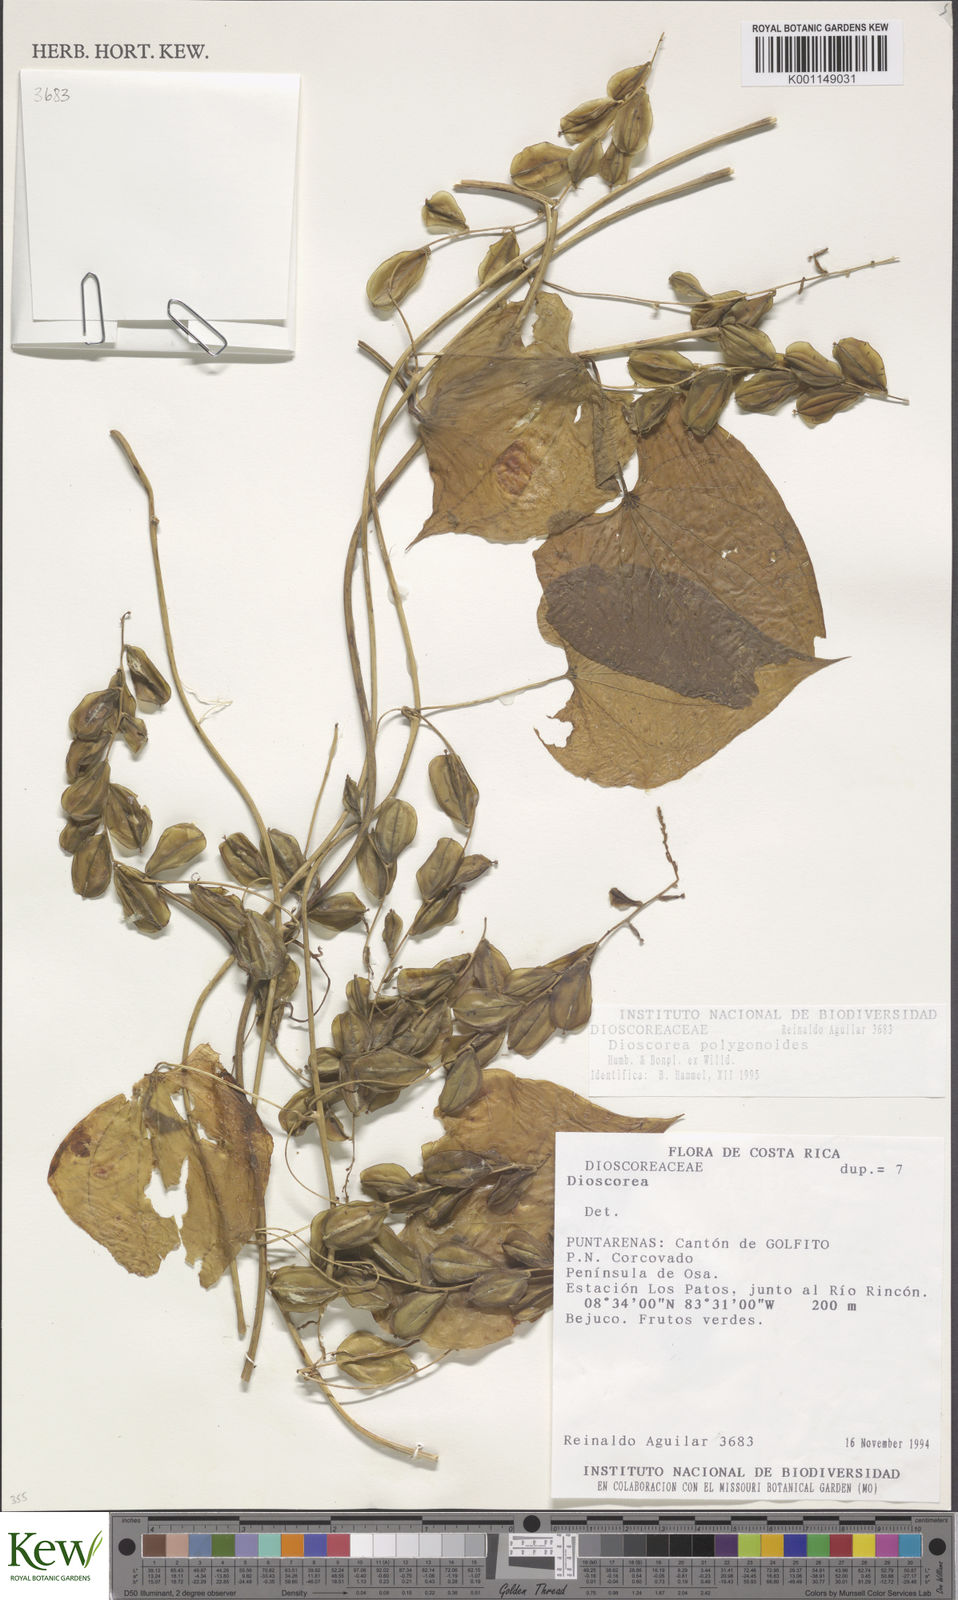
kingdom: Plantae
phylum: Tracheophyta
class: Liliopsida
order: Dioscoreales
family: Dioscoreaceae
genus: Dioscorea
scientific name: Dioscorea polygonoides
